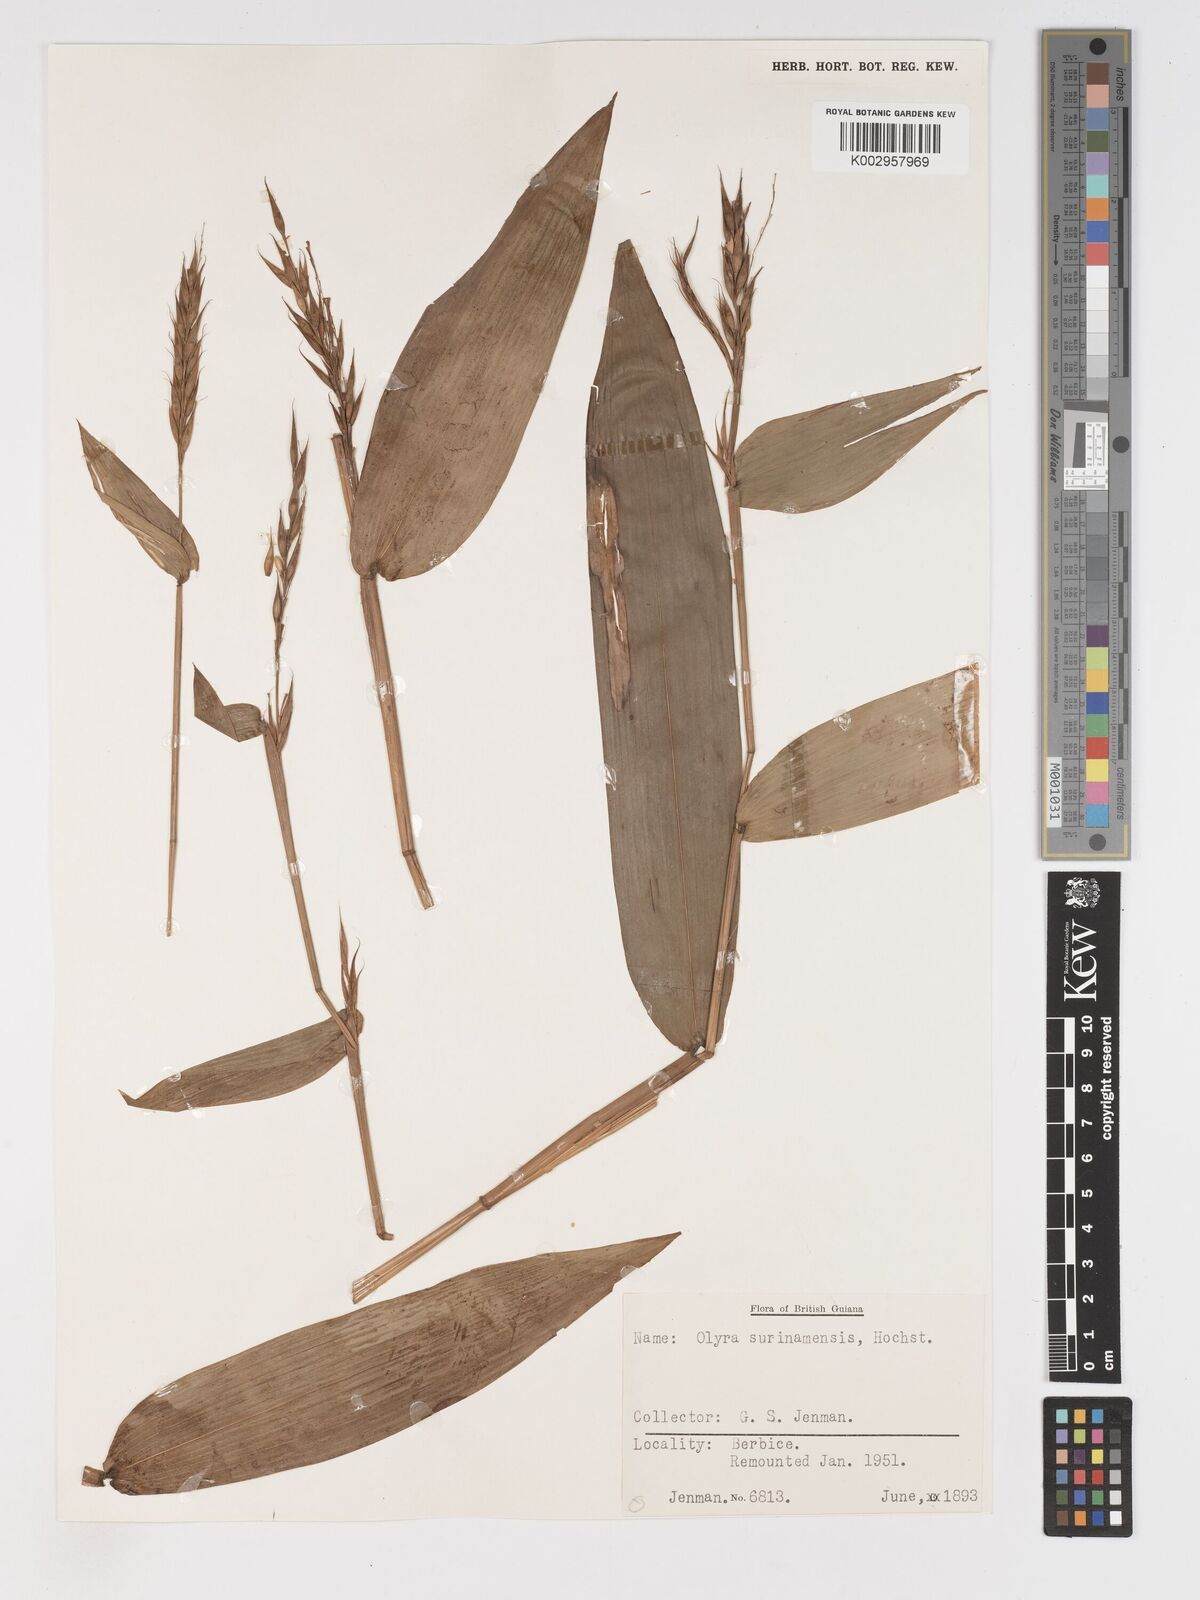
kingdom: Plantae
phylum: Tracheophyta
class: Liliopsida
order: Poales
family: Poaceae
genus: Olyra
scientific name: Olyra longifolia
